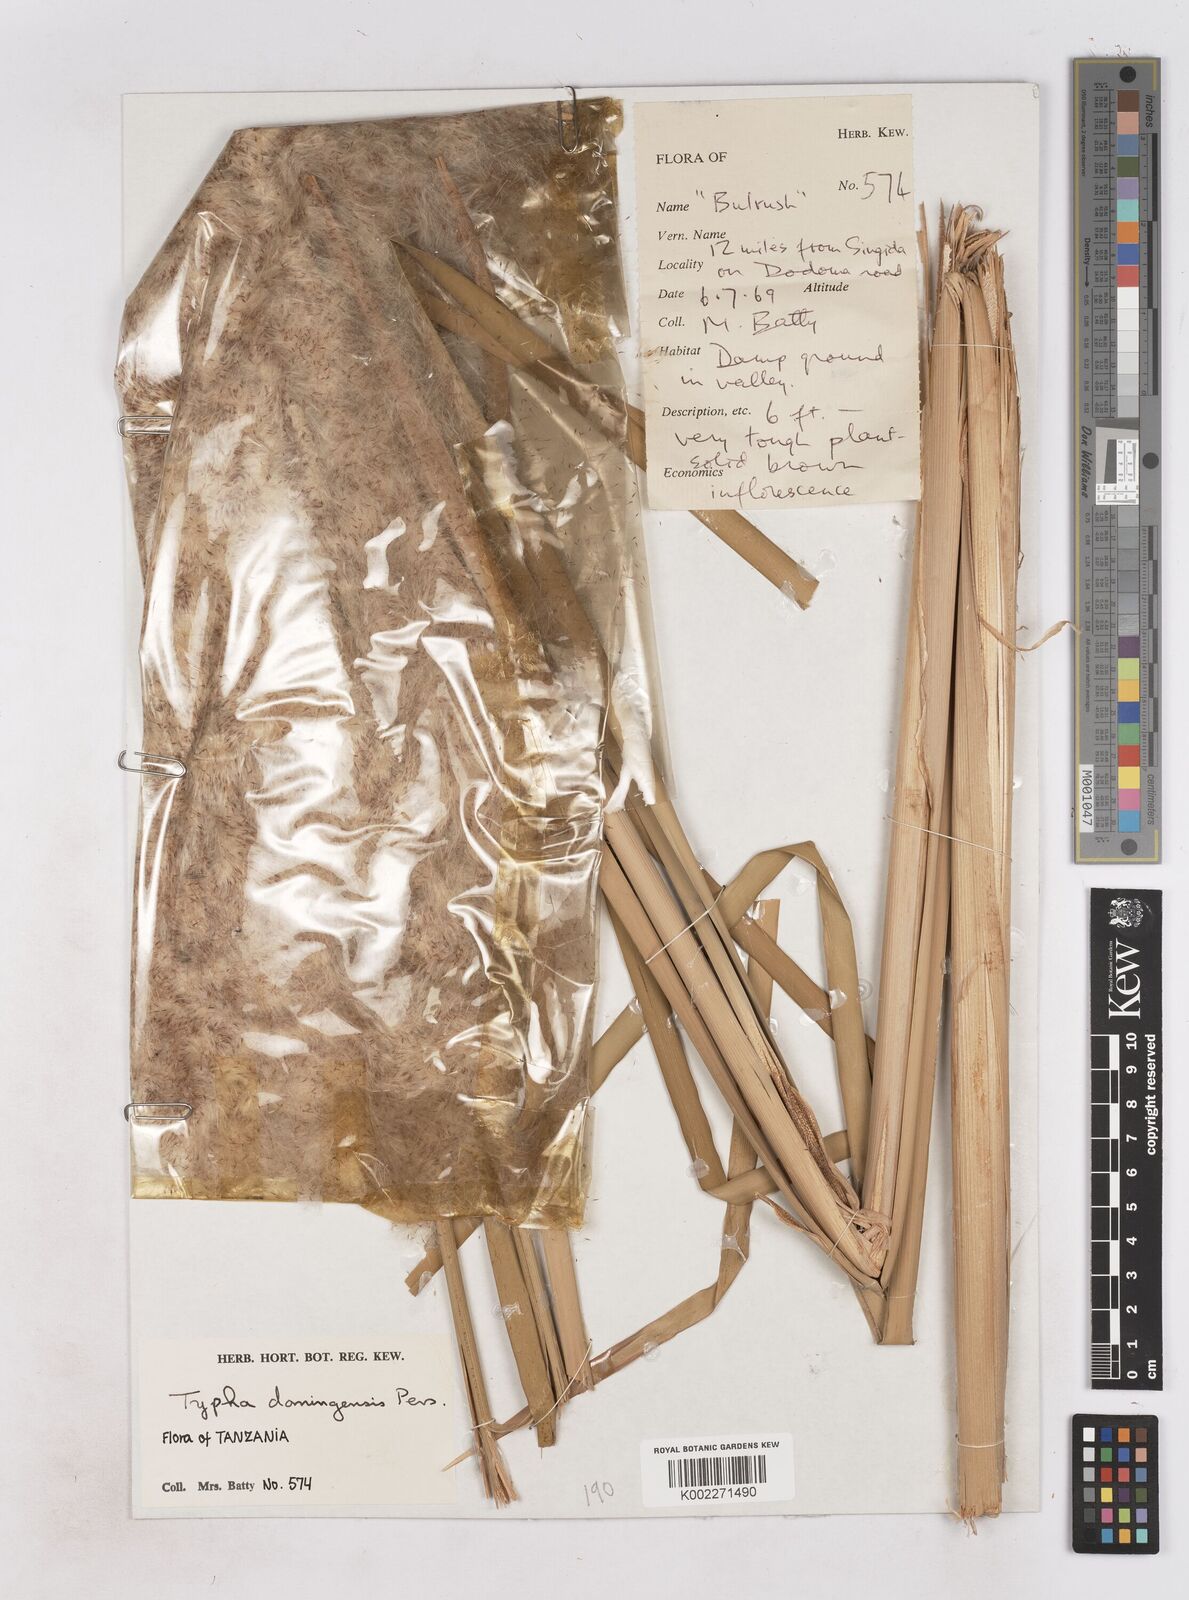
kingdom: Plantae
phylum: Tracheophyta
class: Liliopsida
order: Poales
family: Typhaceae
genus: Typha
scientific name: Typha domingensis
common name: Southern cattail
